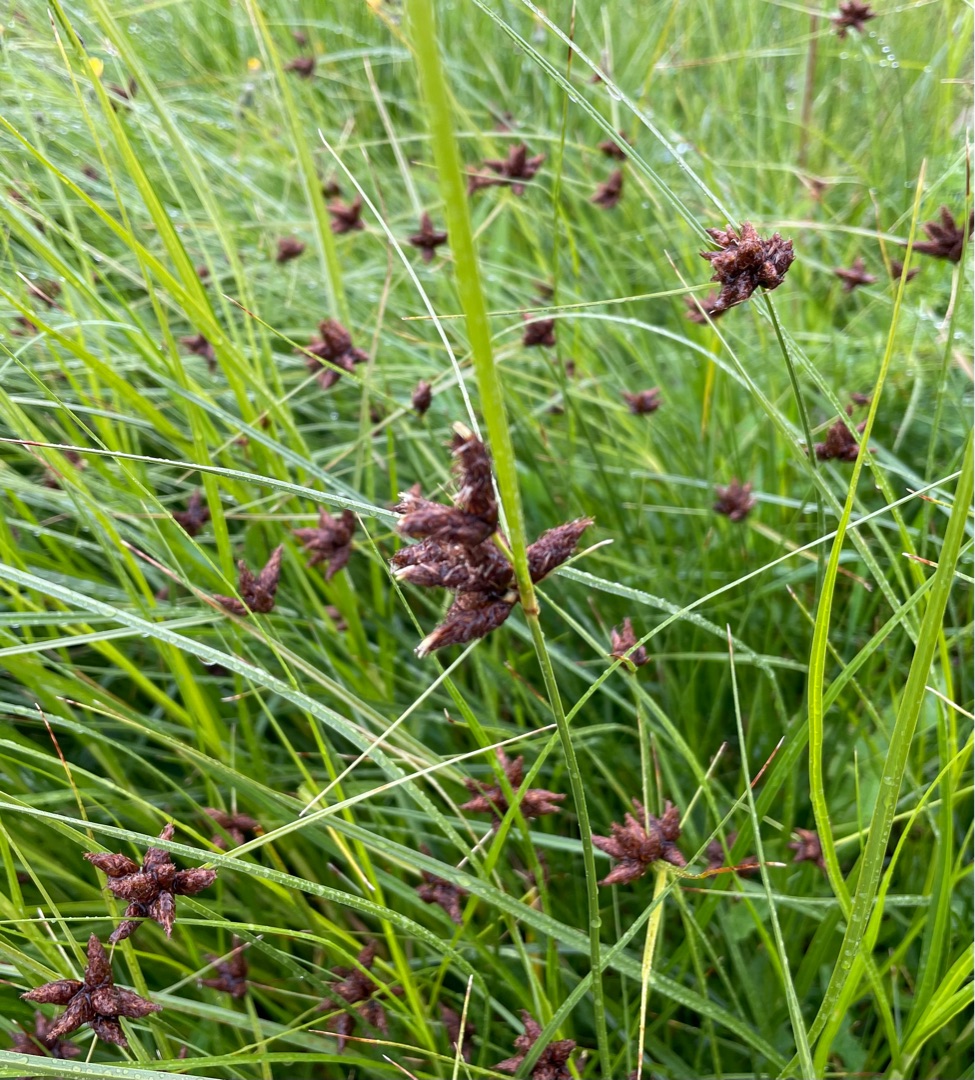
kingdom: Plantae
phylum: Tracheophyta
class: Liliopsida
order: Poales
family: Cyperaceae
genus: Bolboschoenus
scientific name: Bolboschoenus maritimus
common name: Strand-kogleaks
